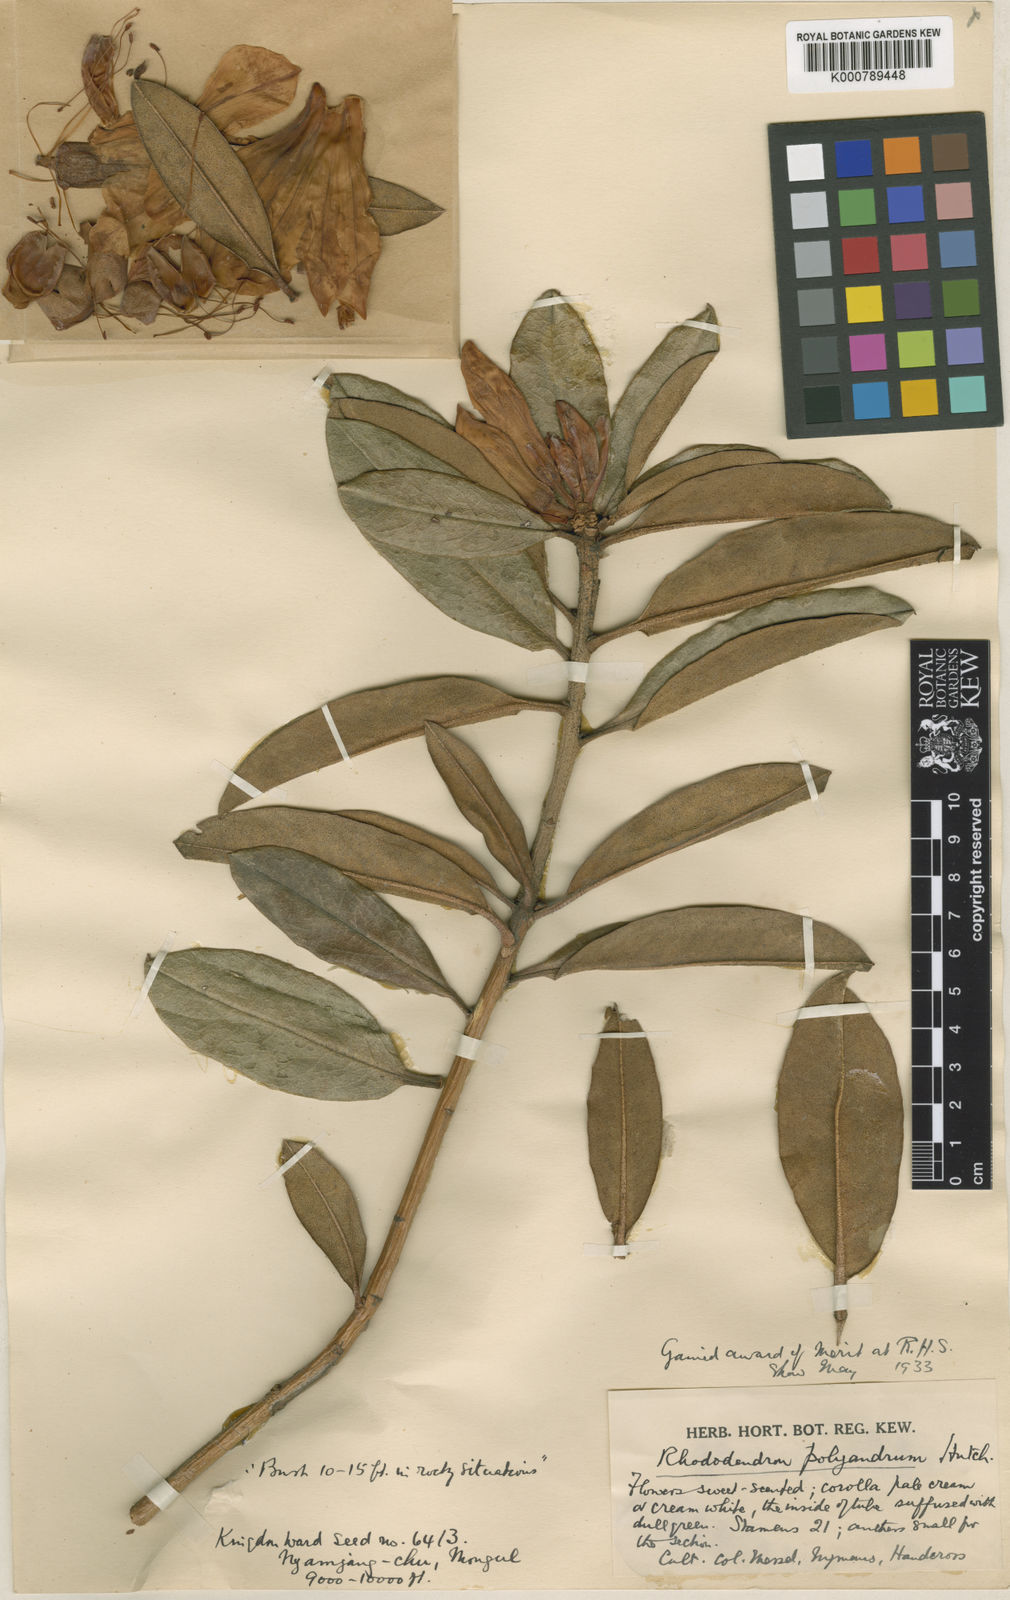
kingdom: Plantae
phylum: Tracheophyta
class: Magnoliopsida
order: Ericales
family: Ericaceae
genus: Rhododendron
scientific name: Rhododendron
